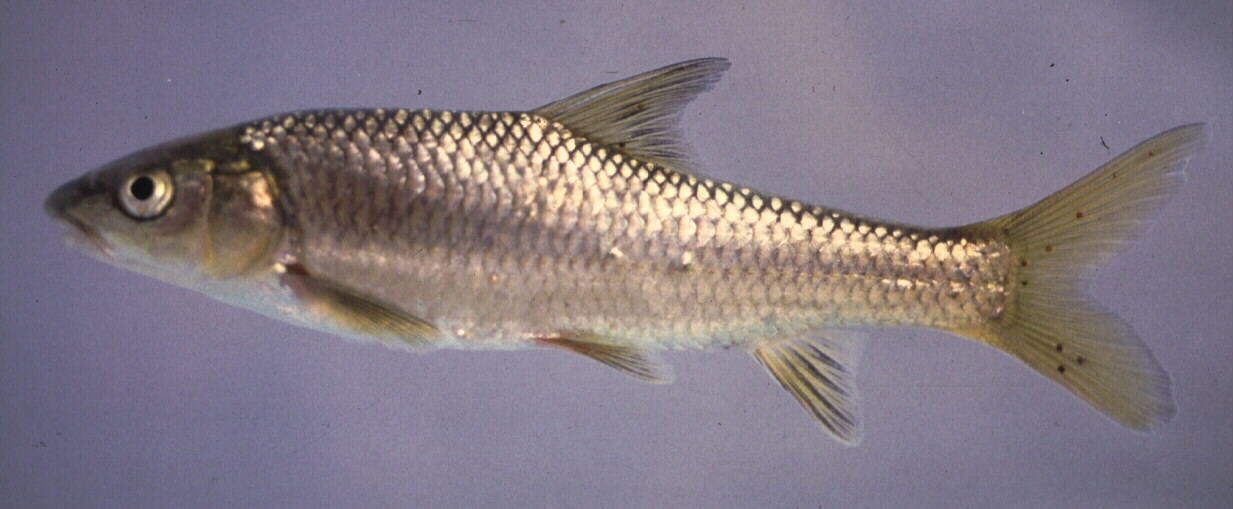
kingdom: Animalia
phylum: Chordata
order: Cypriniformes
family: Cyprinidae
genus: Labeobarbus
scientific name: Labeobarbus polylepis
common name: Bushveld smallscale yellowfish
